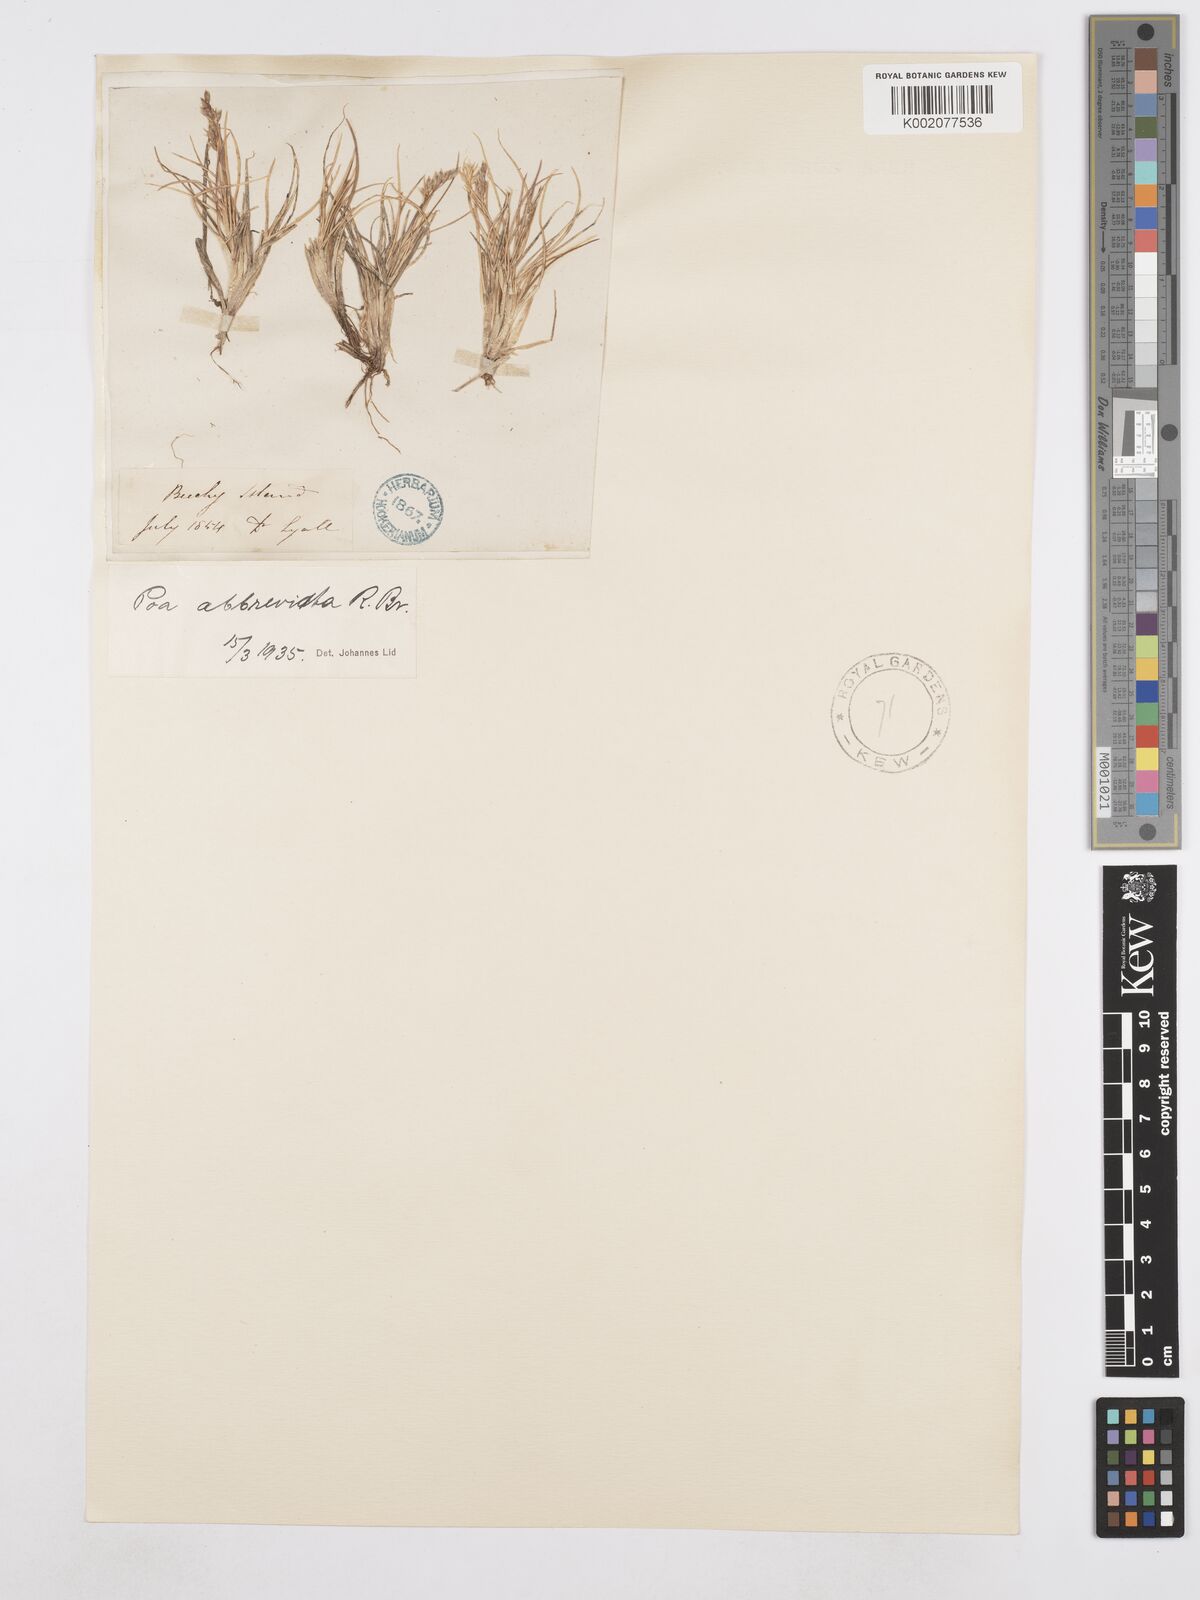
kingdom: Plantae
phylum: Tracheophyta
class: Liliopsida
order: Poales
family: Poaceae
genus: Poa
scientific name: Poa abbreviata
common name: Abbreviated bluegrass
